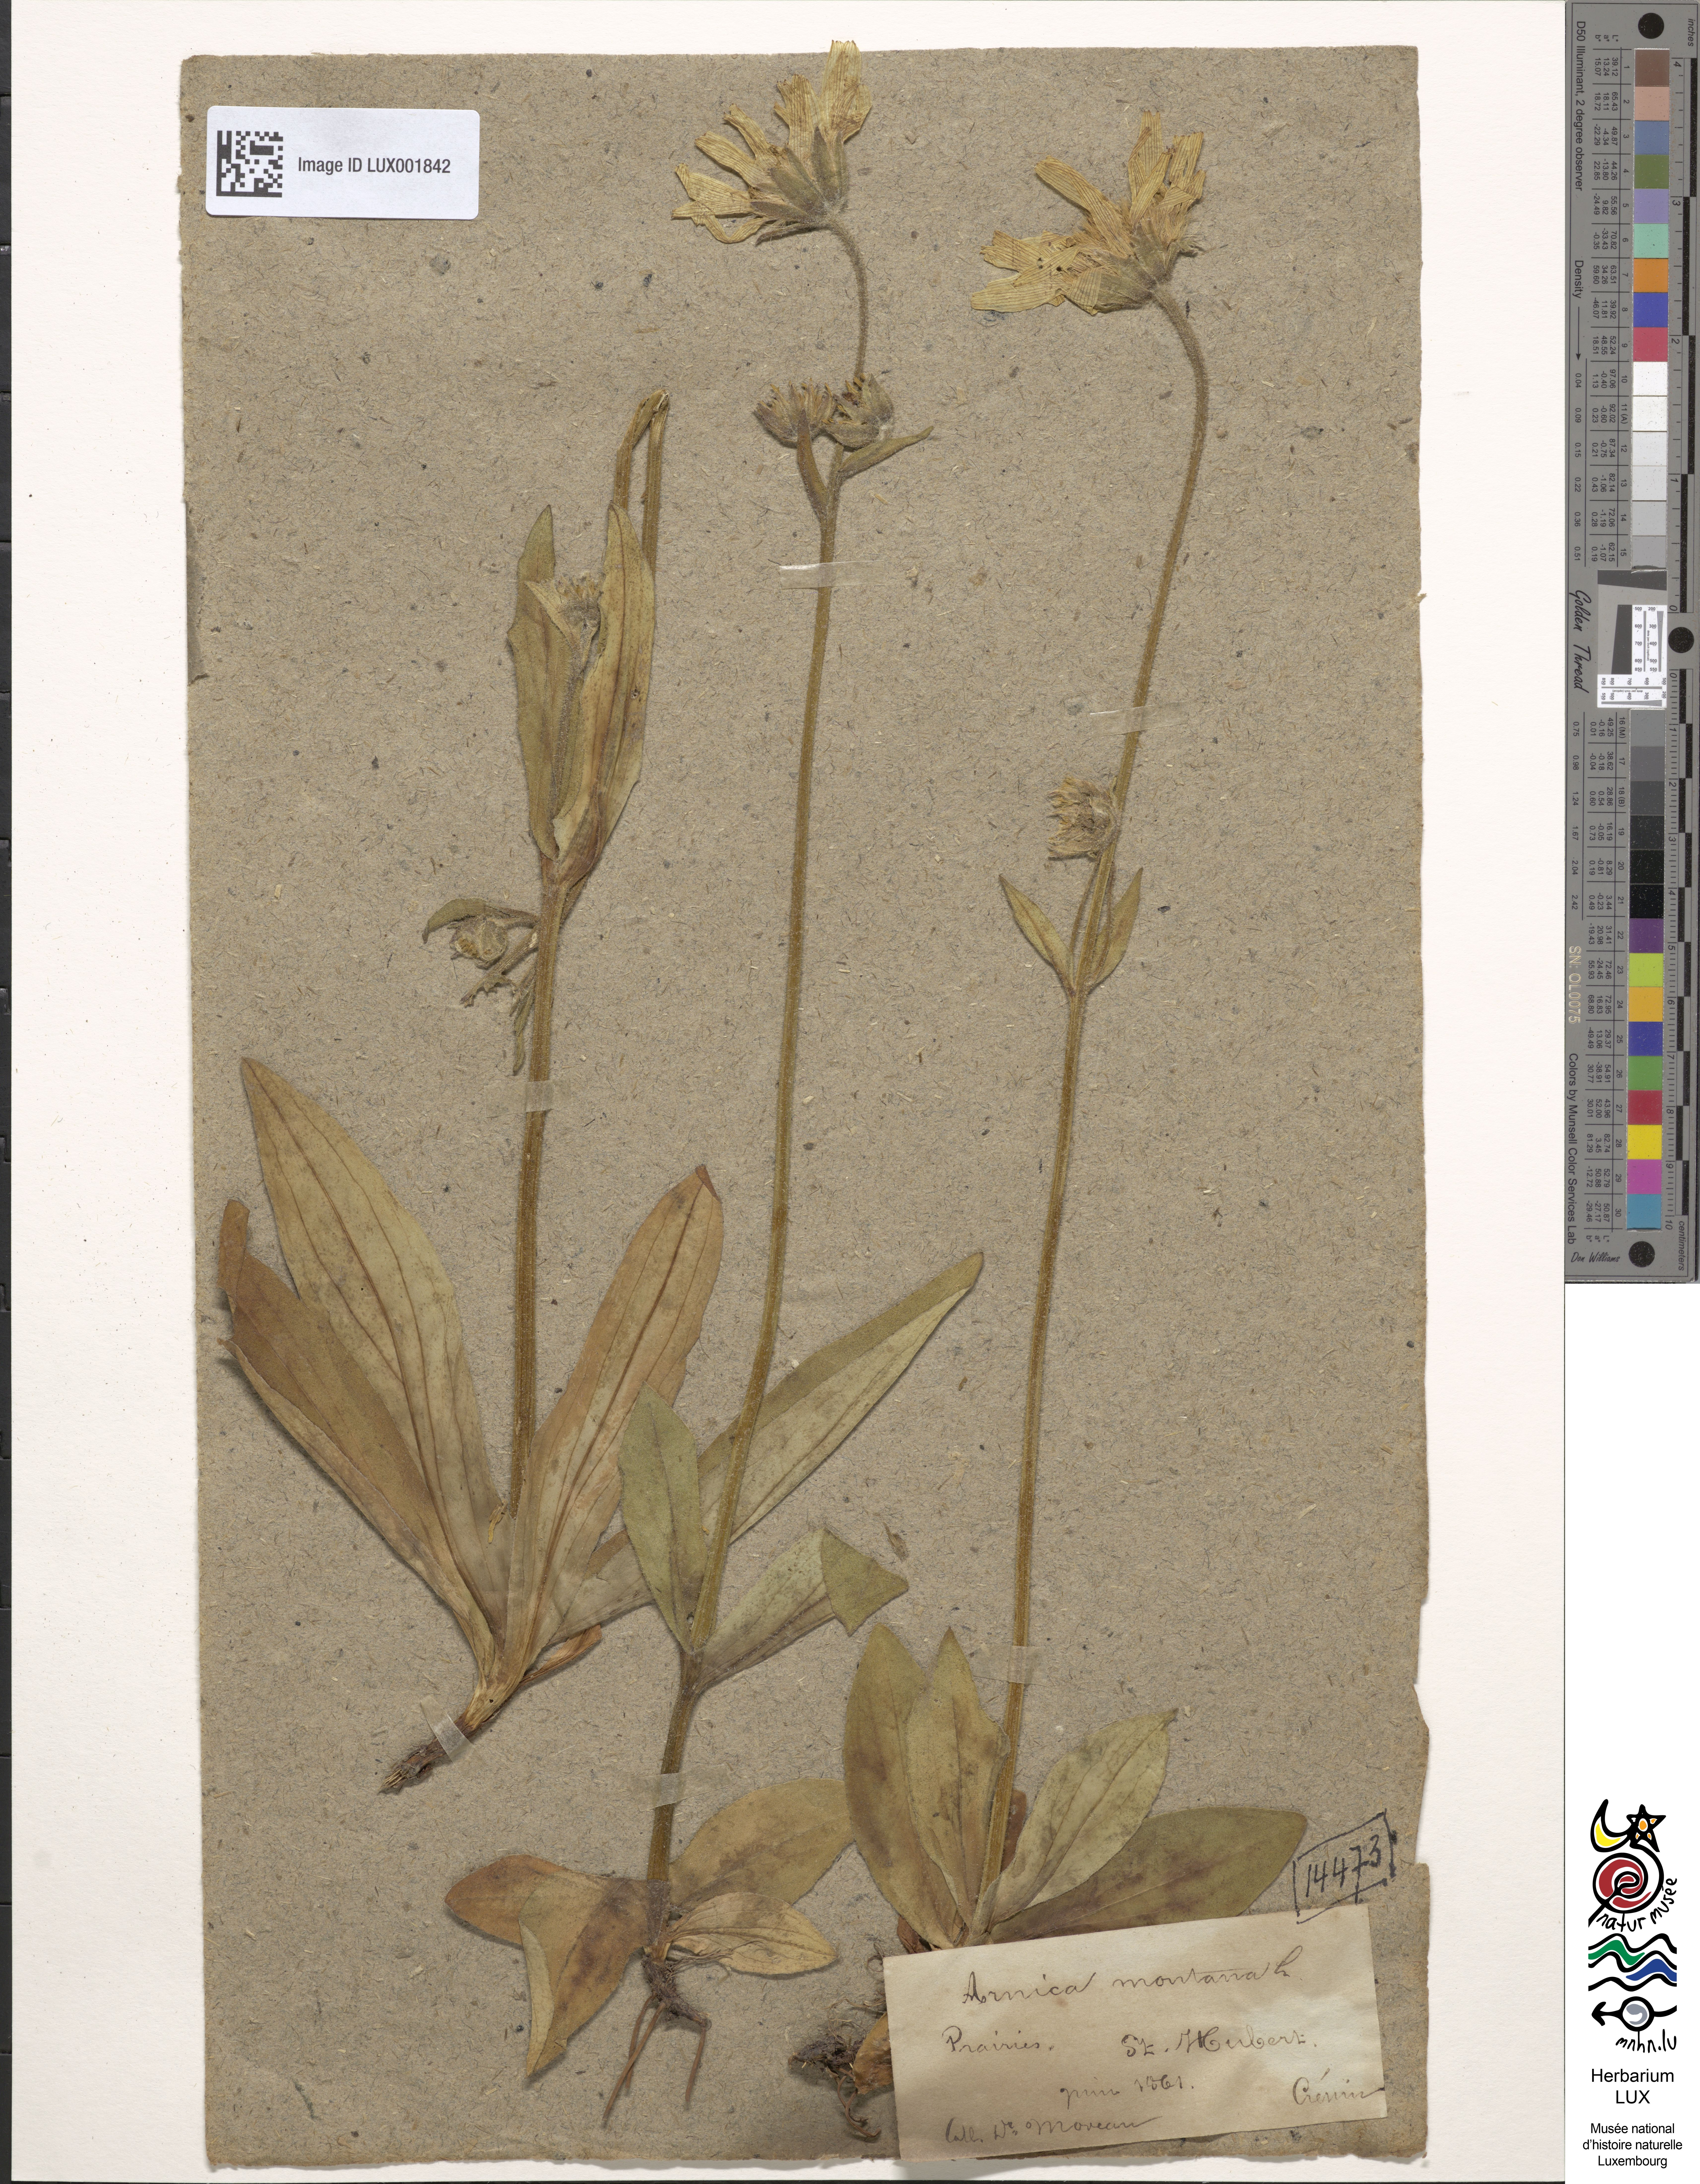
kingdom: Plantae
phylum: Tracheophyta
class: Magnoliopsida
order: Asterales
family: Asteraceae
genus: Arnica
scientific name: Arnica montana
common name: Leopard's bane
